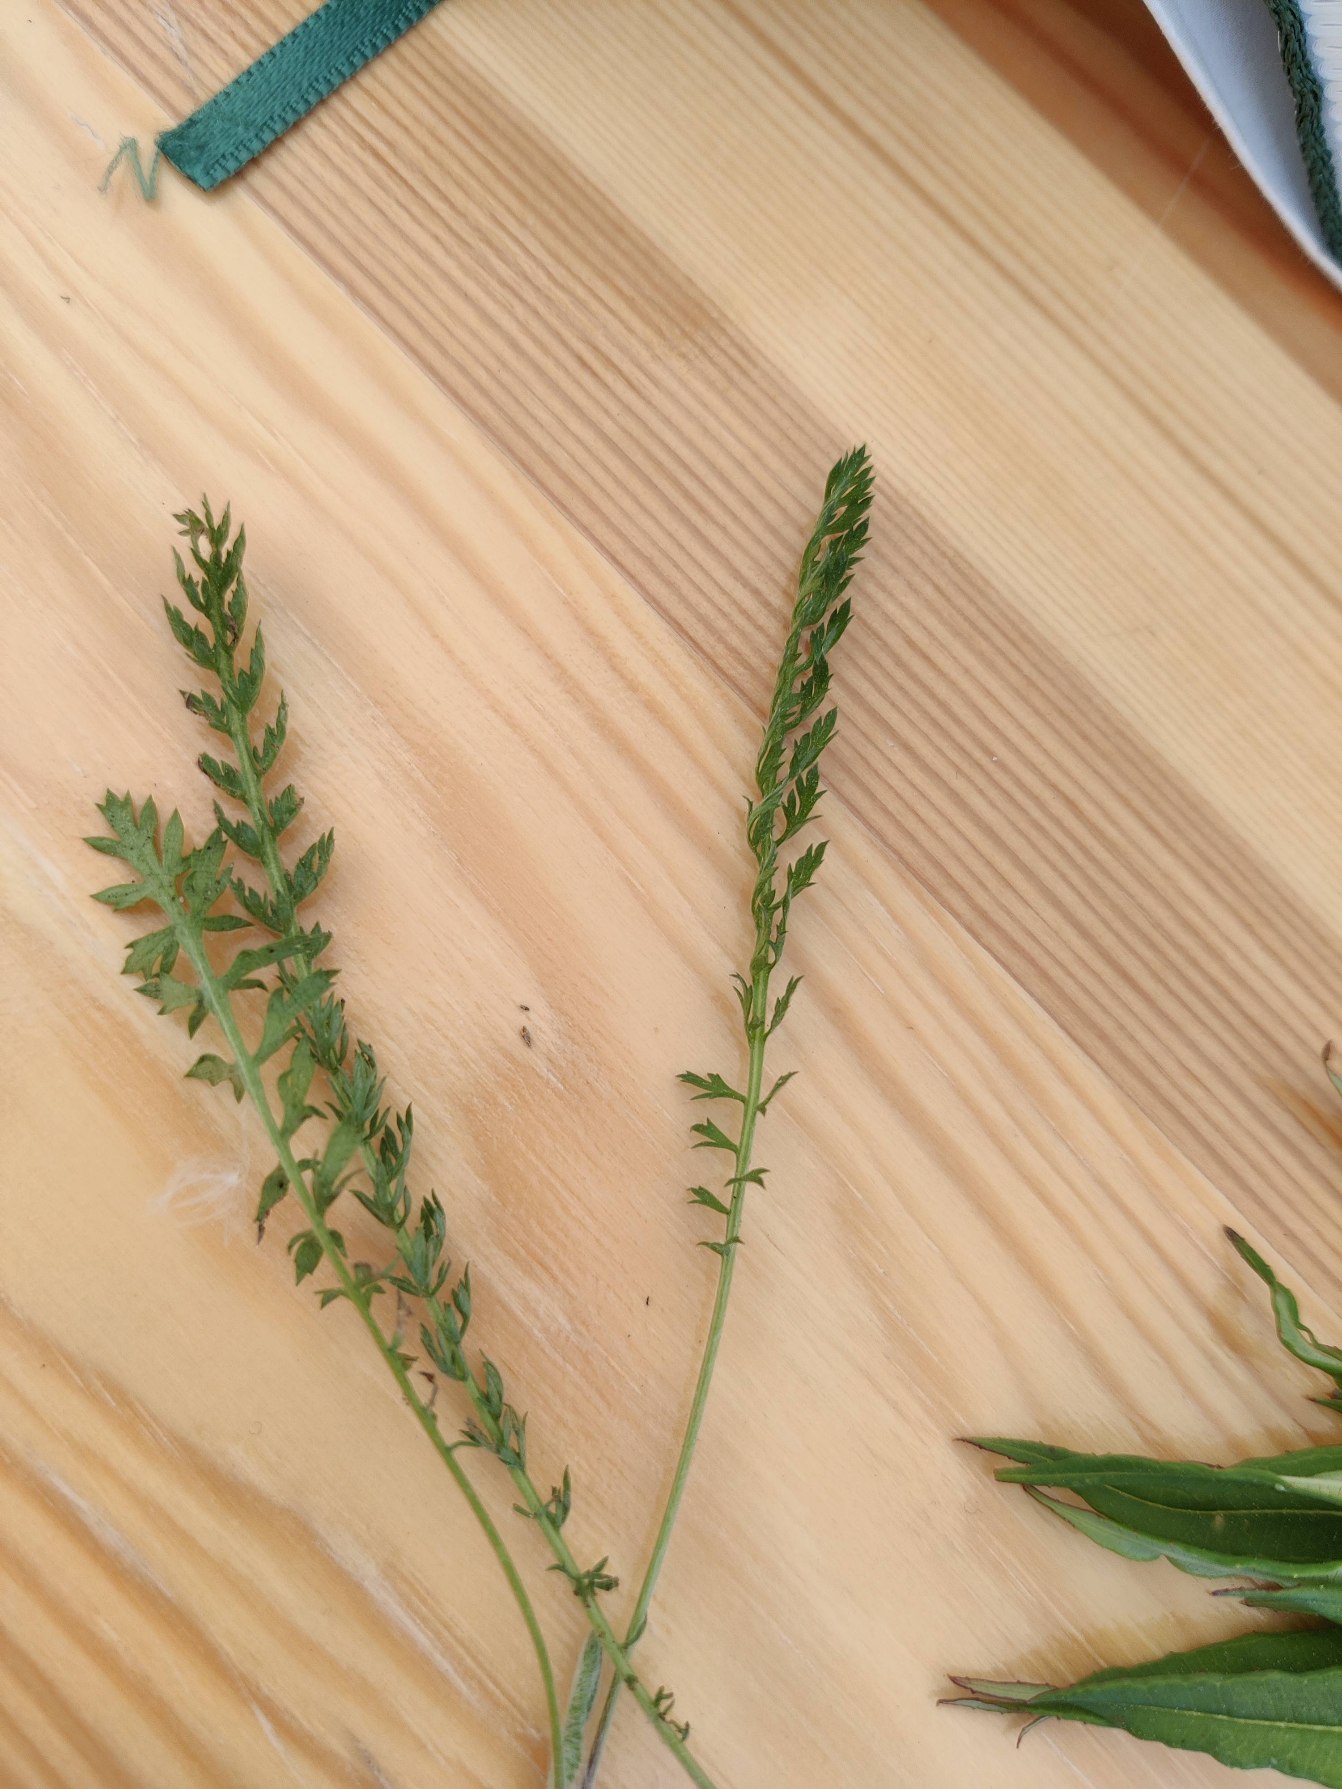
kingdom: Plantae
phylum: Tracheophyta
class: Magnoliopsida
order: Asterales
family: Asteraceae
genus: Achillea
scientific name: Achillea millefolium
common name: Almindelig røllike
